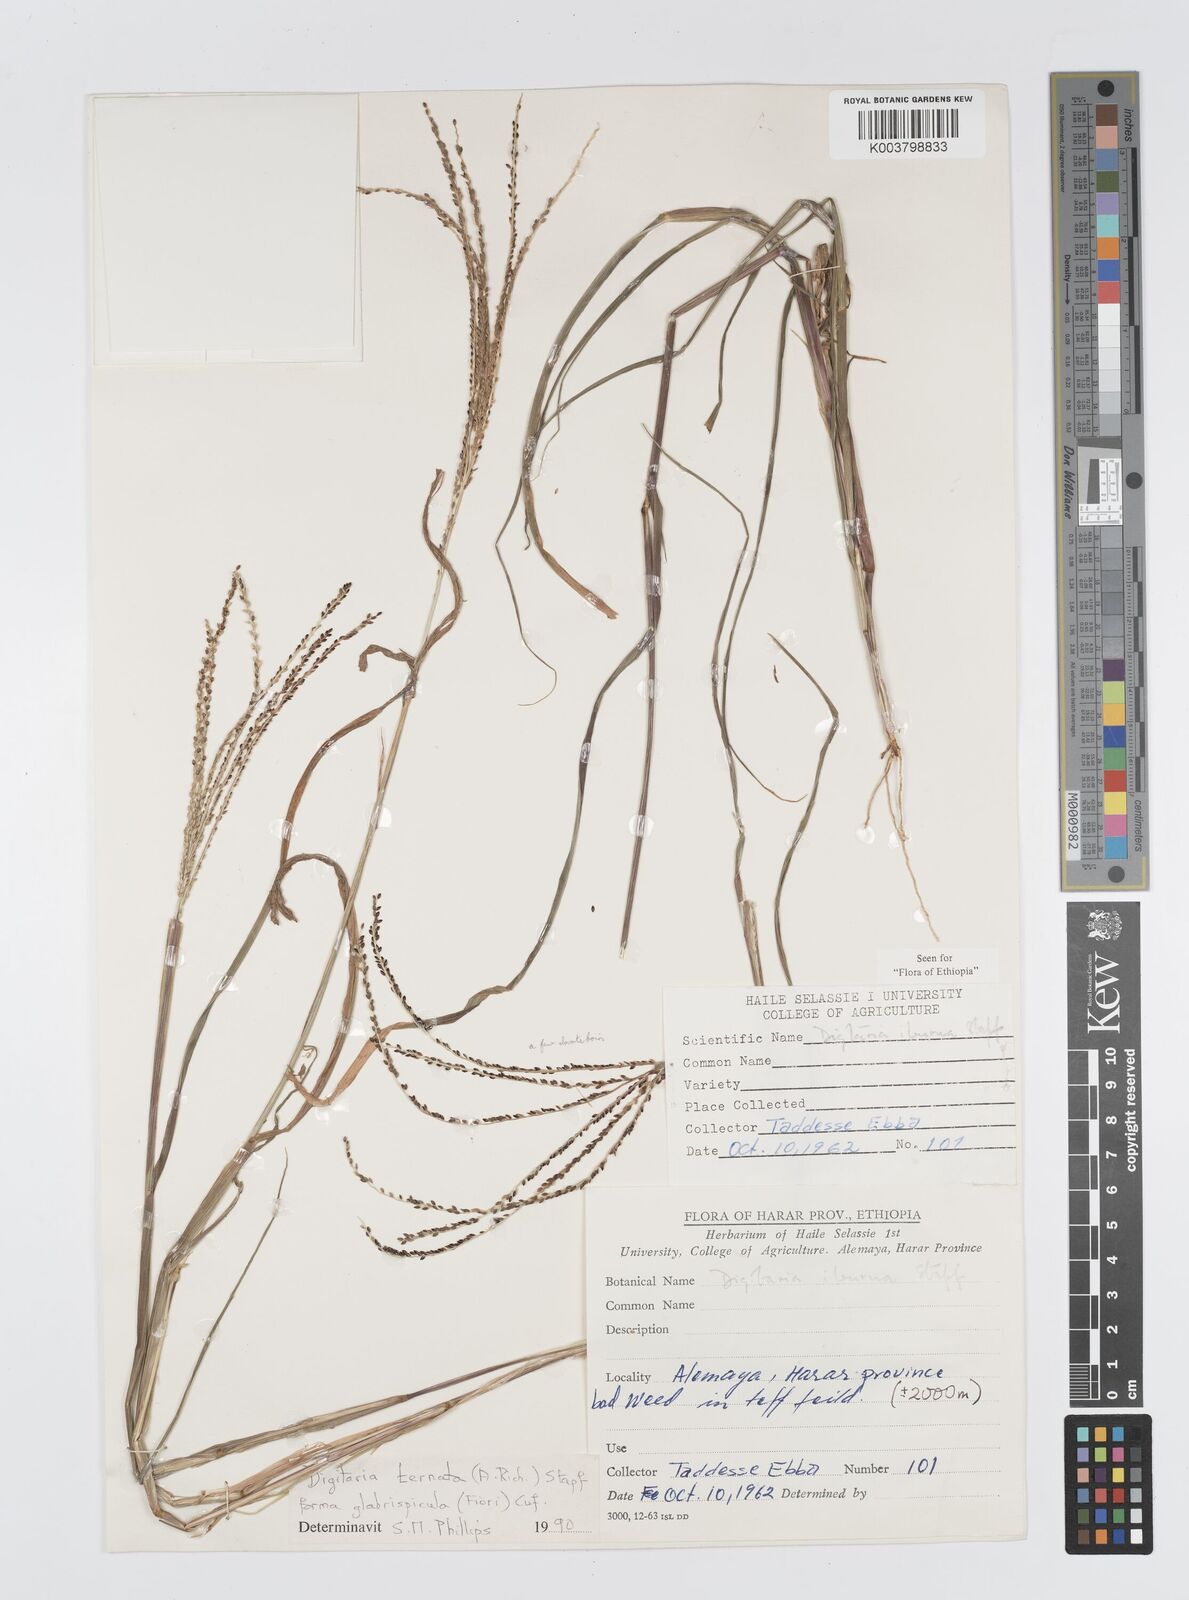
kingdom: Plantae
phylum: Tracheophyta
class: Liliopsida
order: Poales
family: Poaceae
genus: Digitaria
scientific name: Digitaria ternata
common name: Blackseed crabgrass
